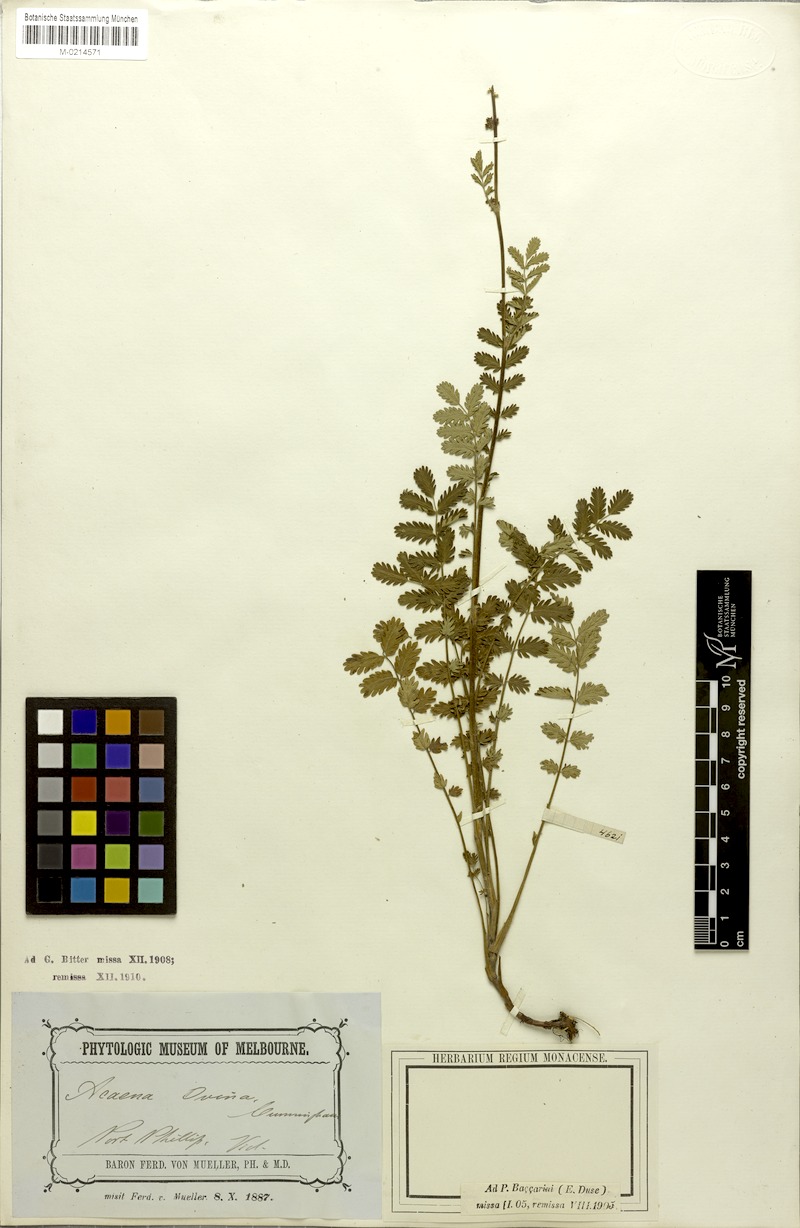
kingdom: Plantae
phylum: Tracheophyta
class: Magnoliopsida
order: Rosales
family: Rosaceae
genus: Acaena
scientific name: Acaena ovina
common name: Hairy sheepbur
